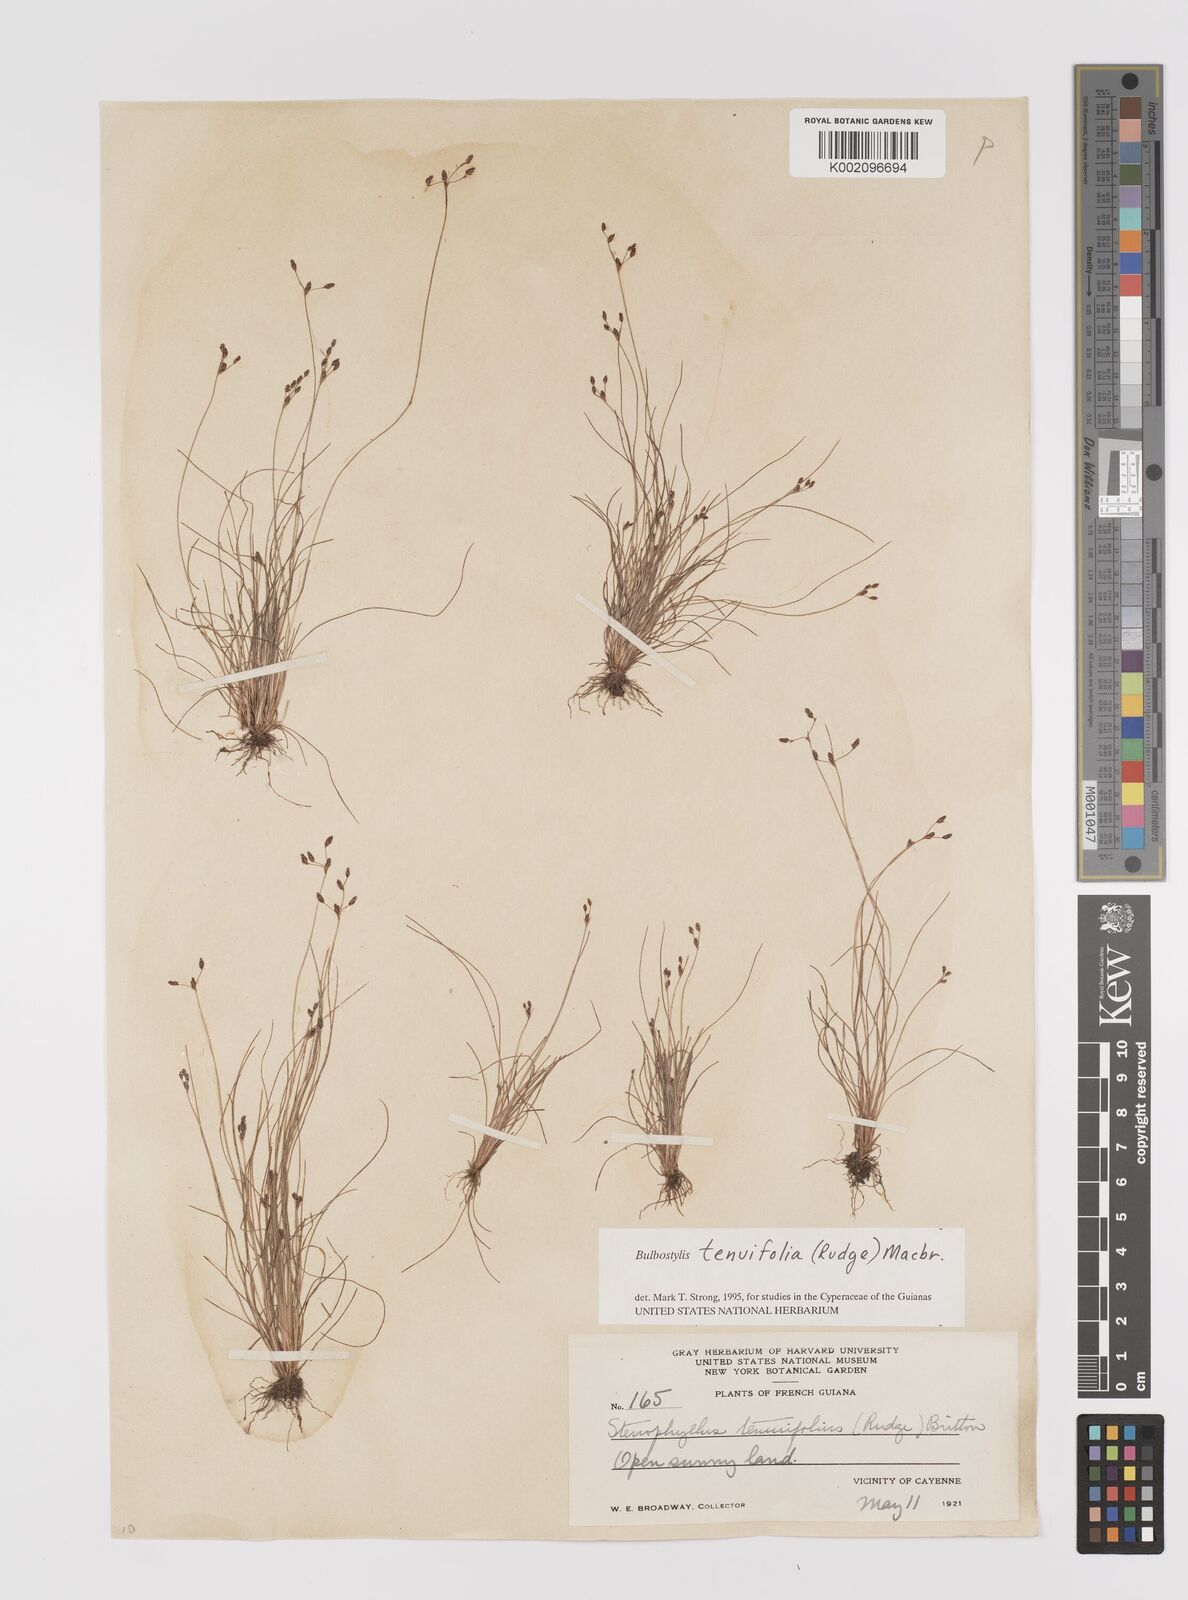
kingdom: Plantae
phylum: Tracheophyta
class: Liliopsida
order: Poales
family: Cyperaceae
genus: Bulbostylis
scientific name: Bulbostylis tenuifolia
